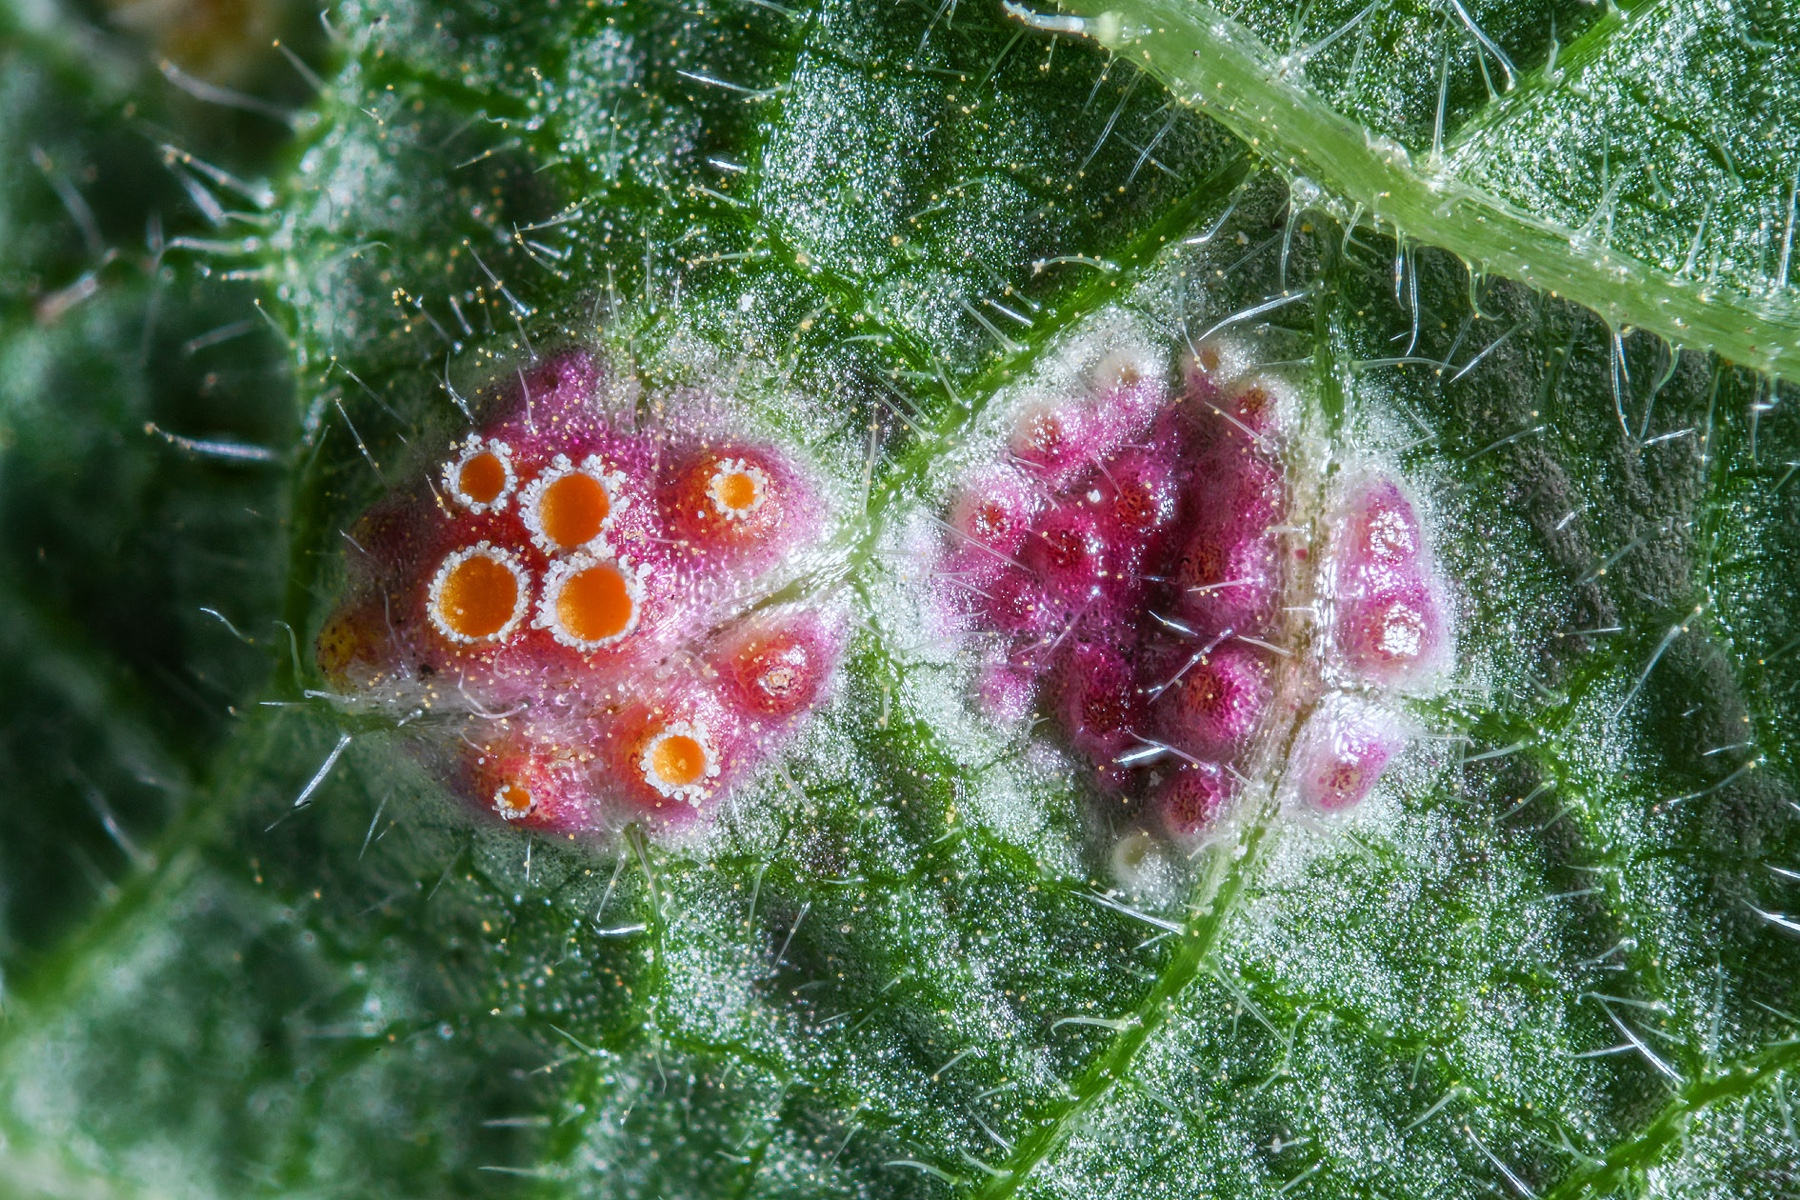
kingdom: Fungi
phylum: Basidiomycota
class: Pucciniomycetes
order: Pucciniales
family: Pucciniaceae
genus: Puccinia
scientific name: Puccinia urticata
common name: nældegalle-tvecellerust
